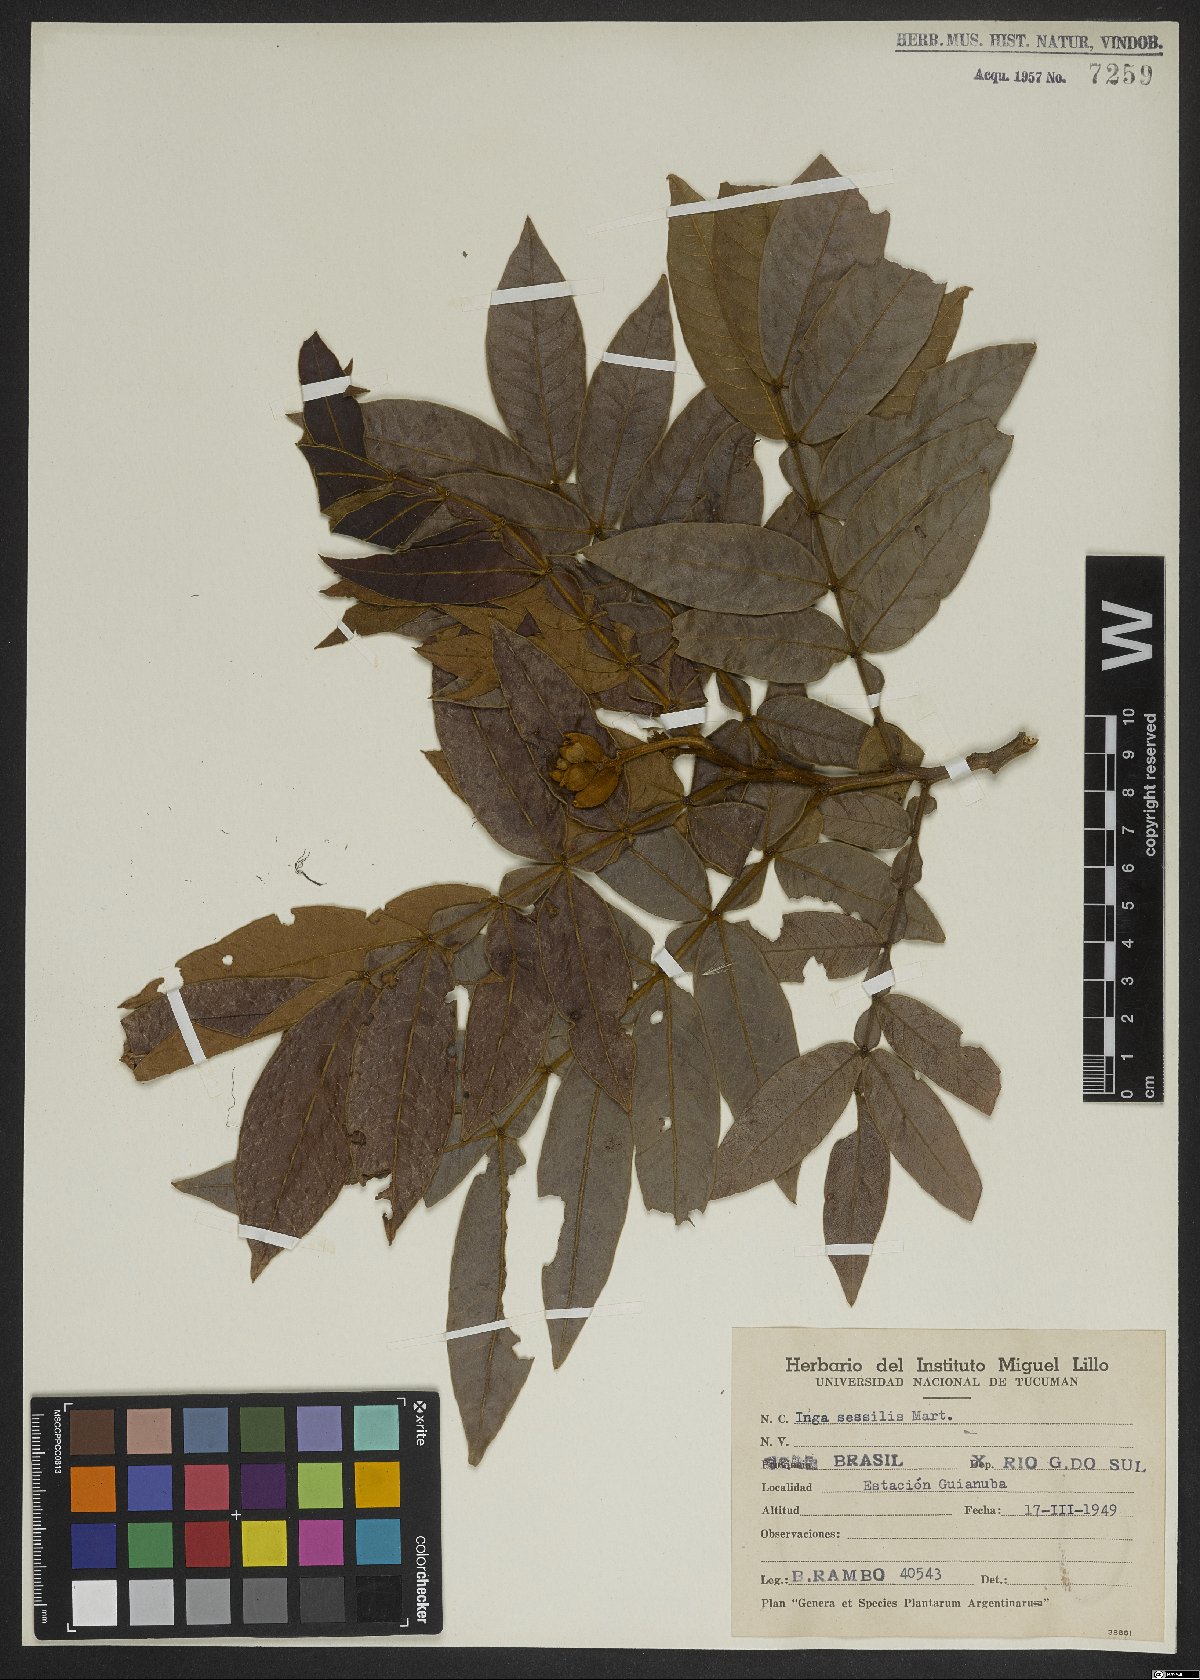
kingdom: Plantae
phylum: Tracheophyta
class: Magnoliopsida
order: Fabales
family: Fabaceae
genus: Inga
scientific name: Inga sessilis
